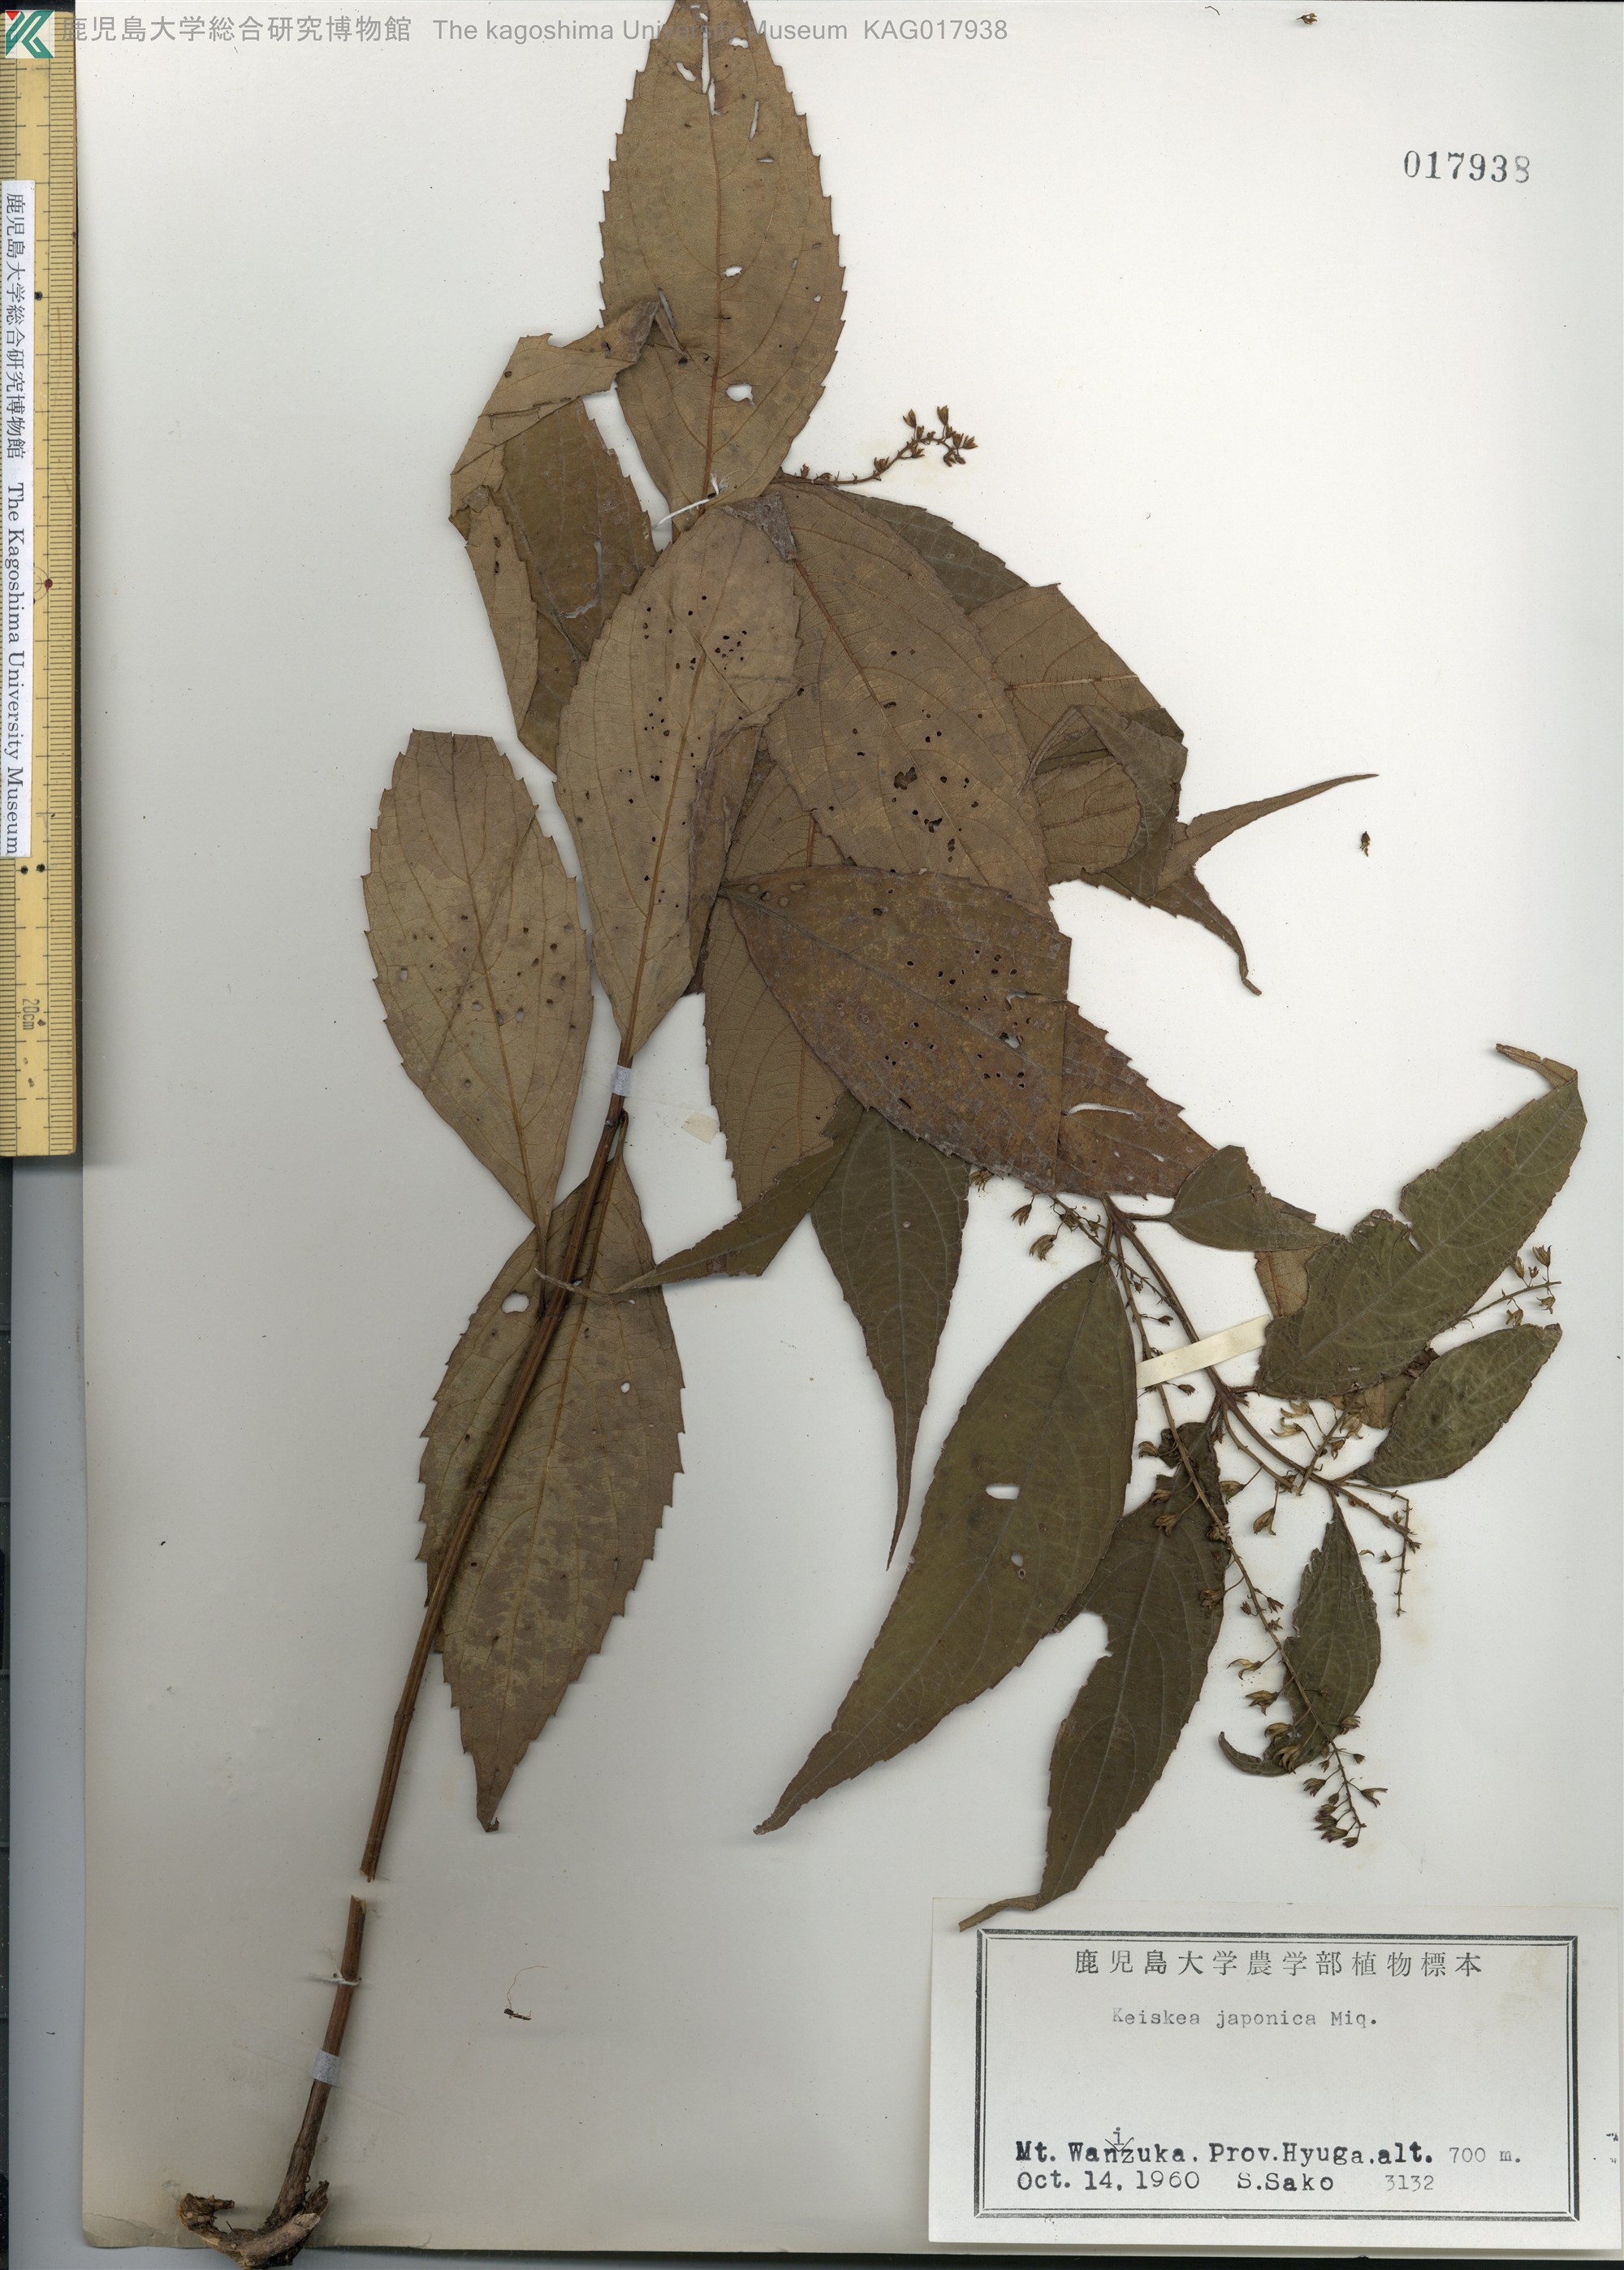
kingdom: Plantae
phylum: Tracheophyta
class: Magnoliopsida
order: Lamiales
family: Lamiaceae
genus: Collinsonia
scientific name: Collinsonia japonica
